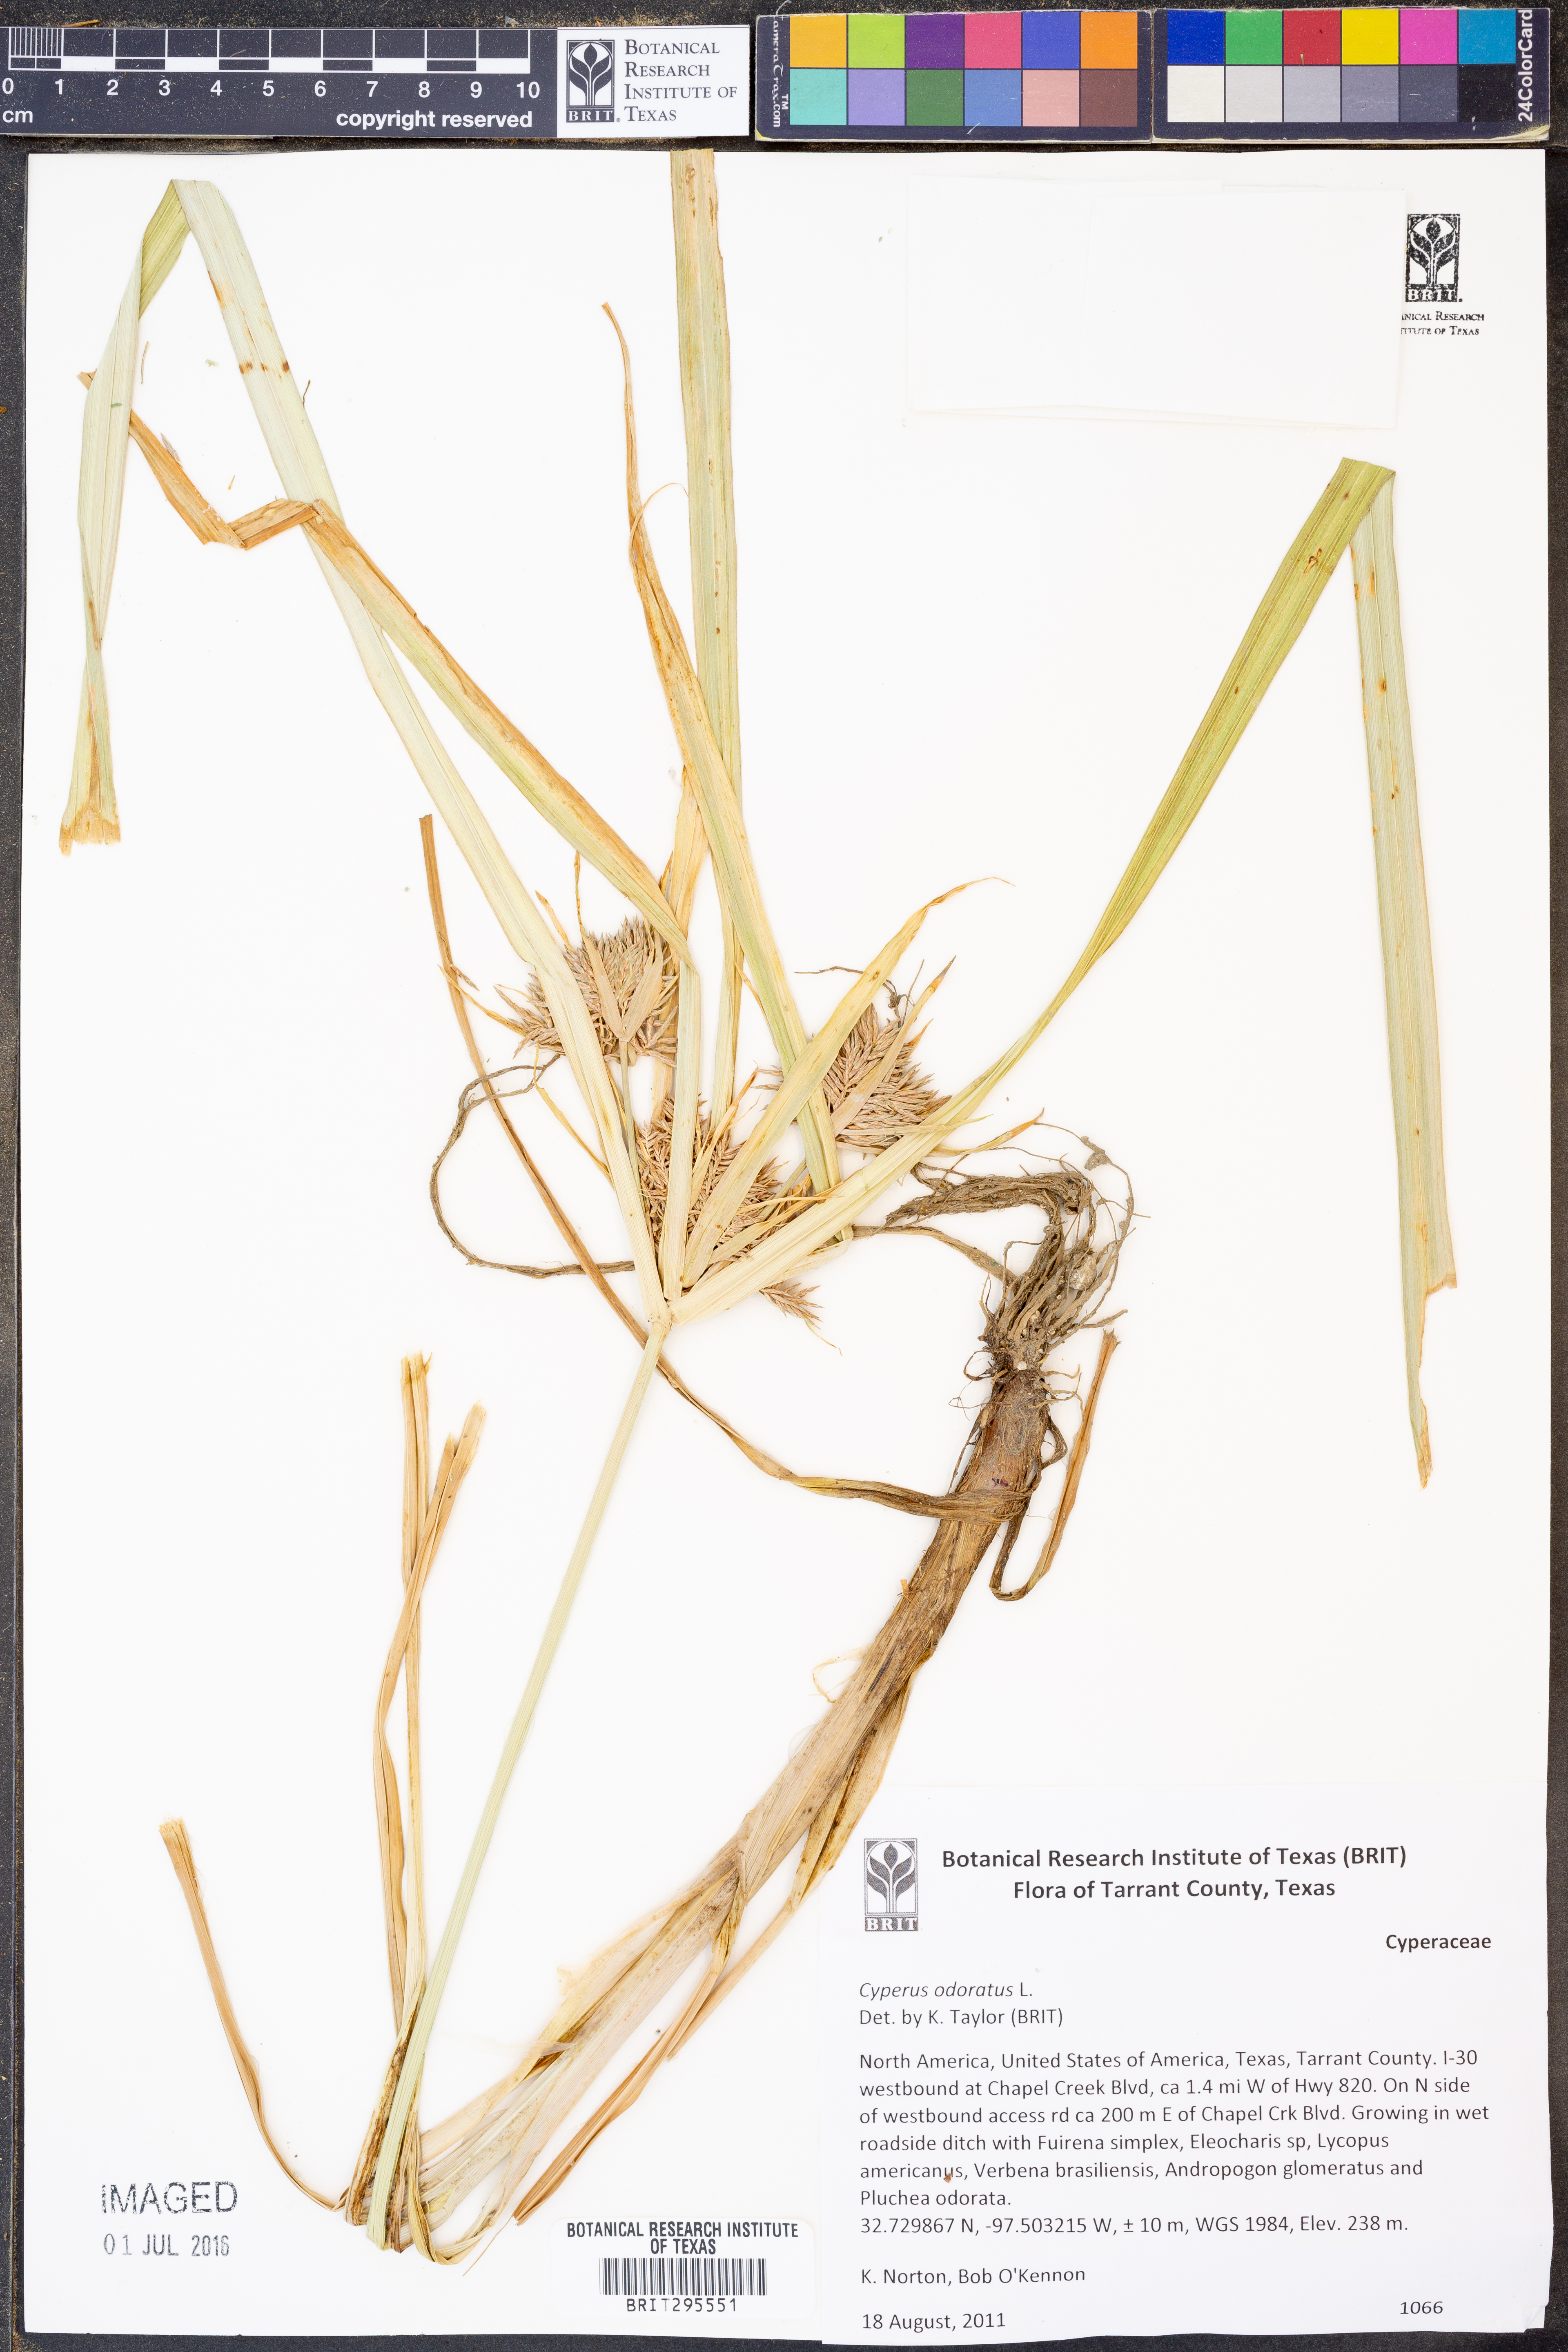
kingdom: Plantae
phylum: Tracheophyta
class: Liliopsida
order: Poales
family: Cyperaceae
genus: Cyperus
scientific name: Cyperus odoratus
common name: Fragrant flatsedge
